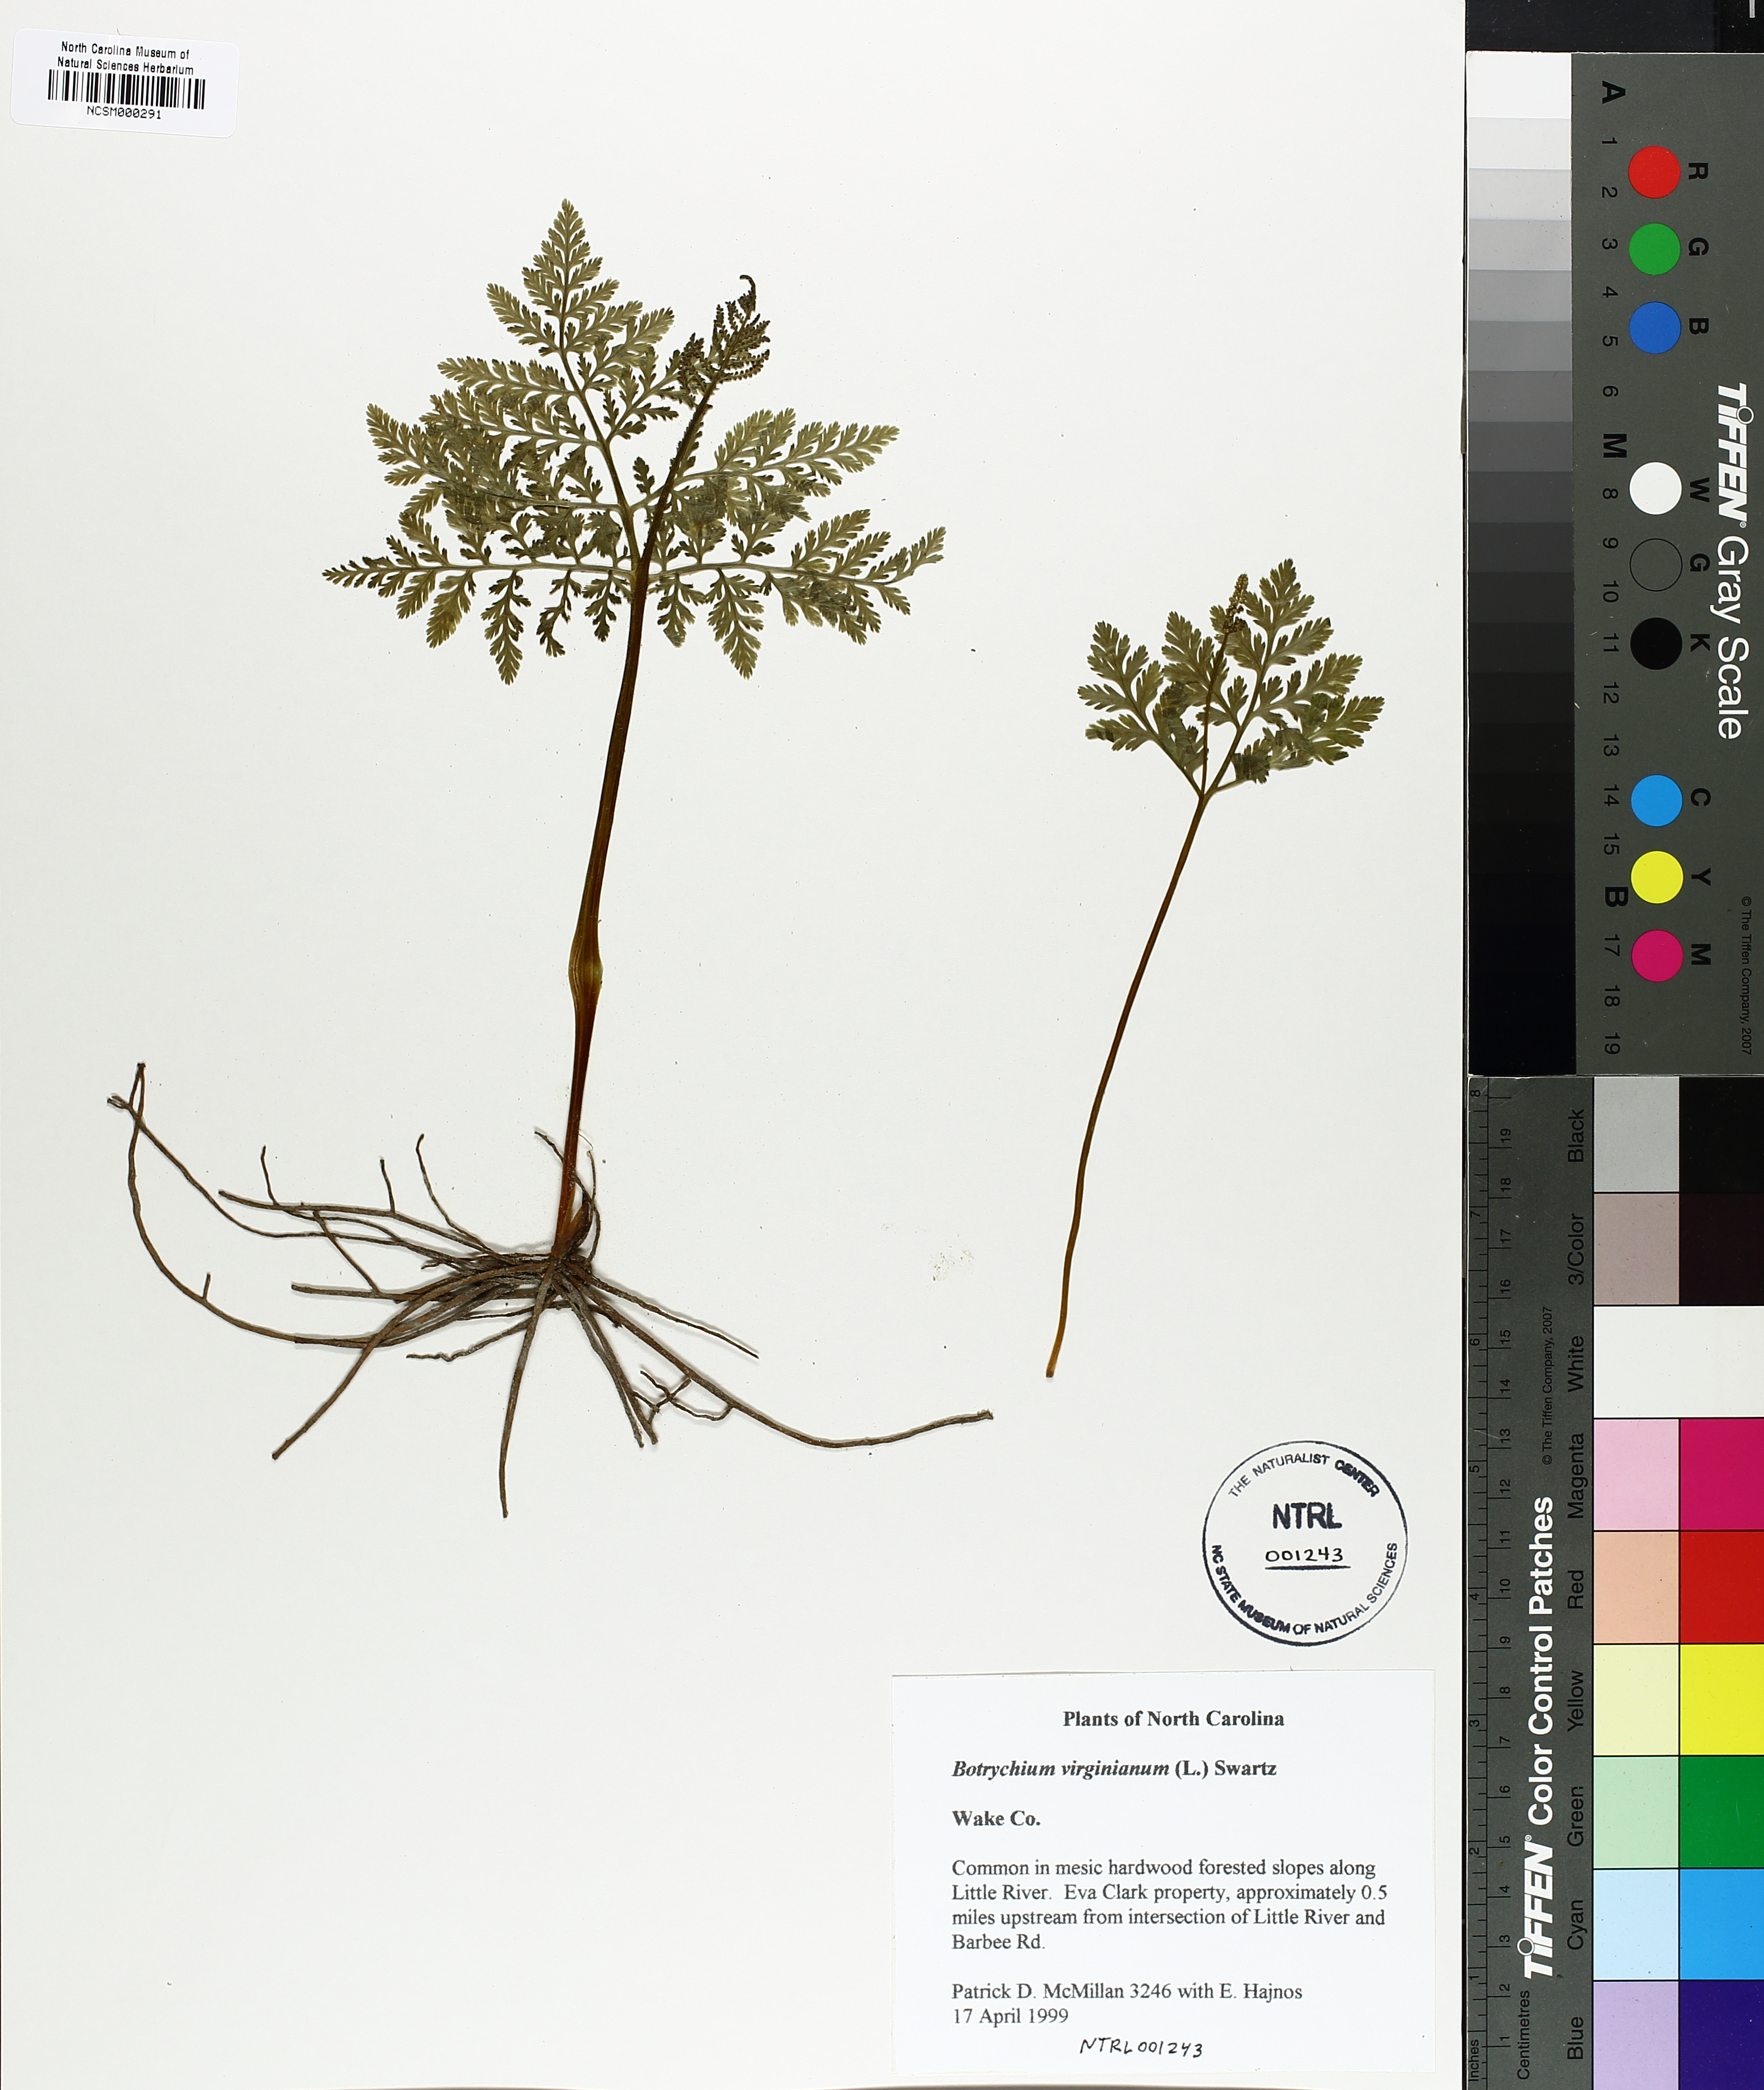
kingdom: Plantae
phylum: Tracheophyta
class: Polypodiopsida
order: Ophioglossales
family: Ophioglossaceae
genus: Botrypus
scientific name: Botrypus virginianus
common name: Common grapefern
